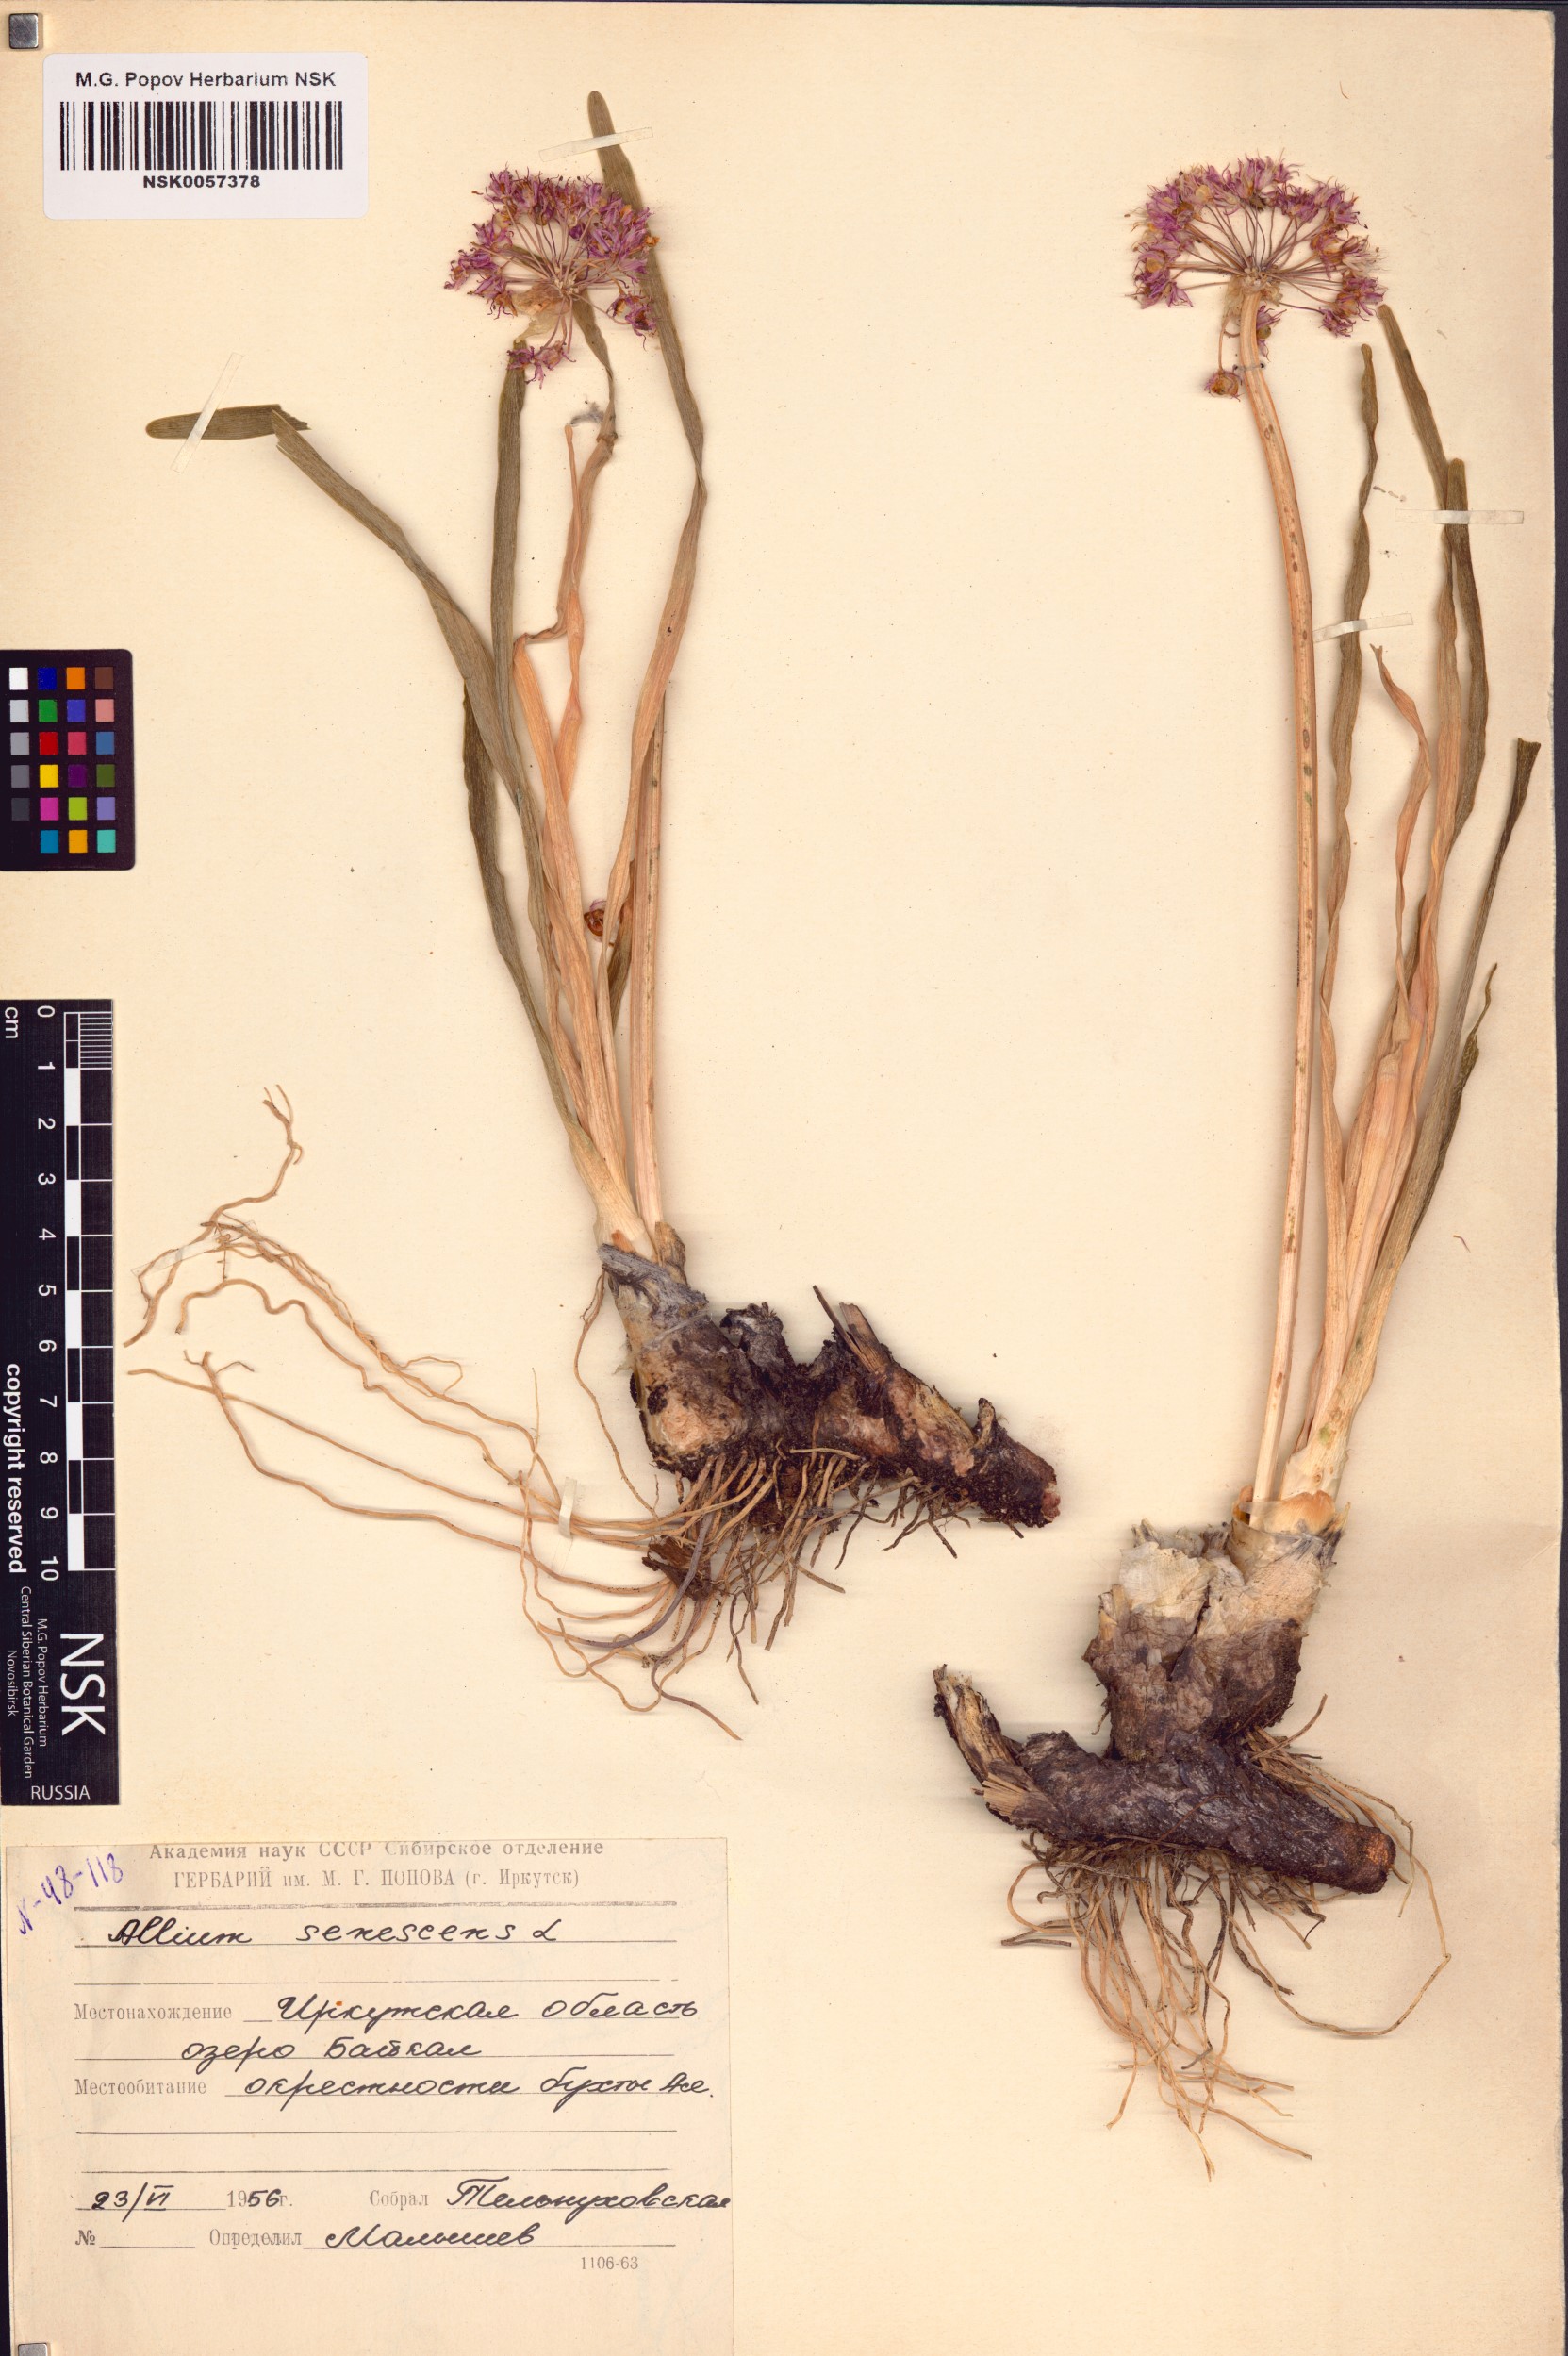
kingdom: Plantae
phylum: Tracheophyta
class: Liliopsida
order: Asparagales
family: Amaryllidaceae
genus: Allium
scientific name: Allium senescens
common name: German garlic
